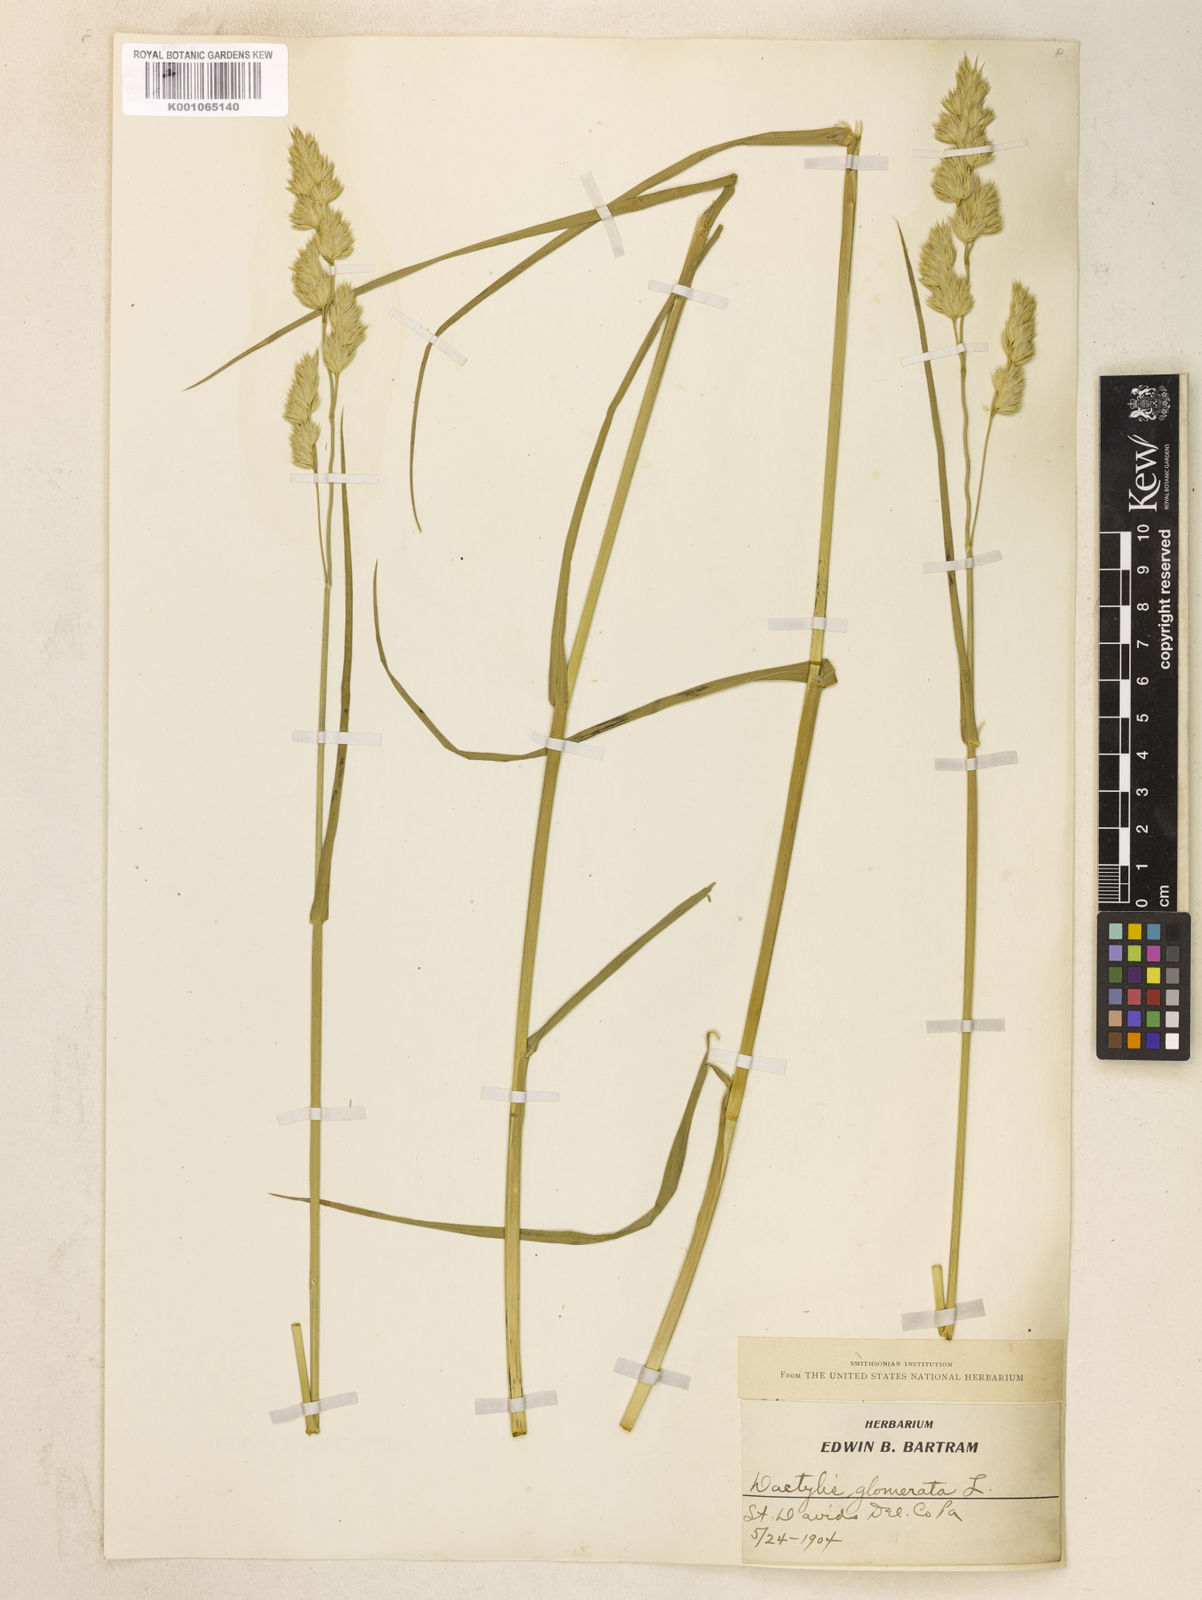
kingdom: Plantae
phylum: Tracheophyta
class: Liliopsida
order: Poales
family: Poaceae
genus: Dactylis
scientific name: Dactylis glomerata
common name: Orchardgrass
